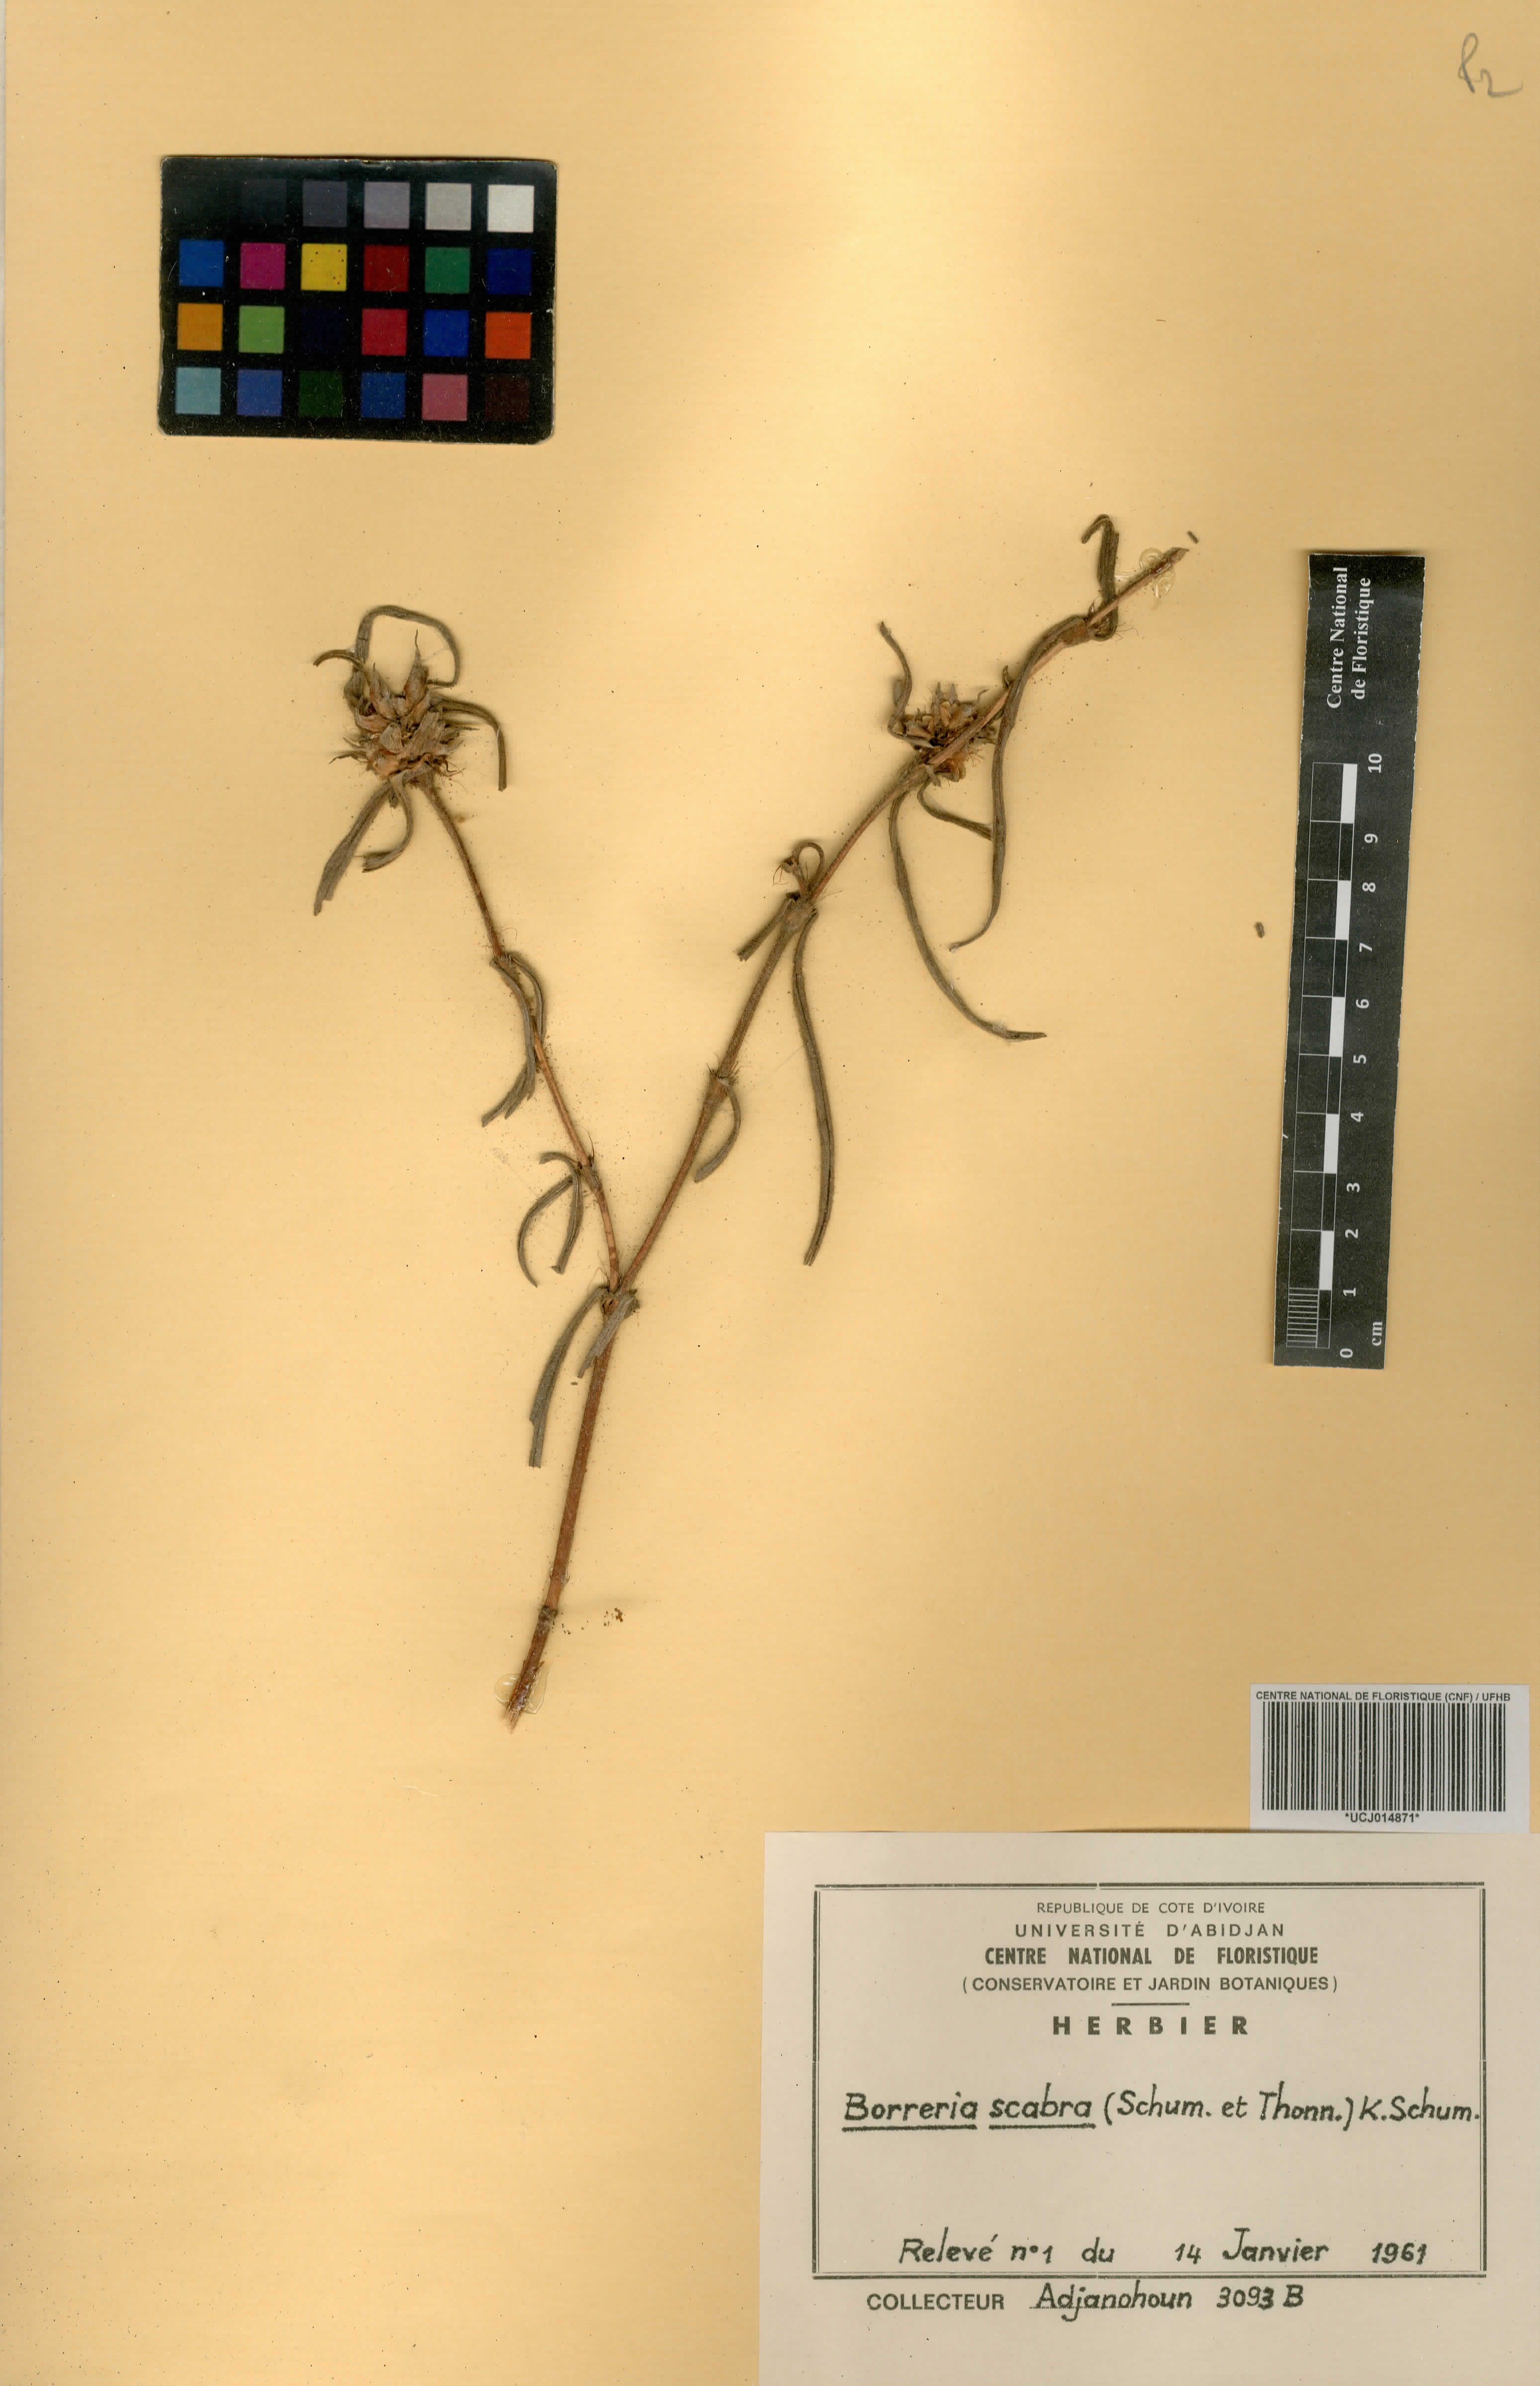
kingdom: Plantae
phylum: Tracheophyta
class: Magnoliopsida
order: Gentianales
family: Rubiaceae
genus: Spermacoce
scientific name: Spermacoce ruelliae
